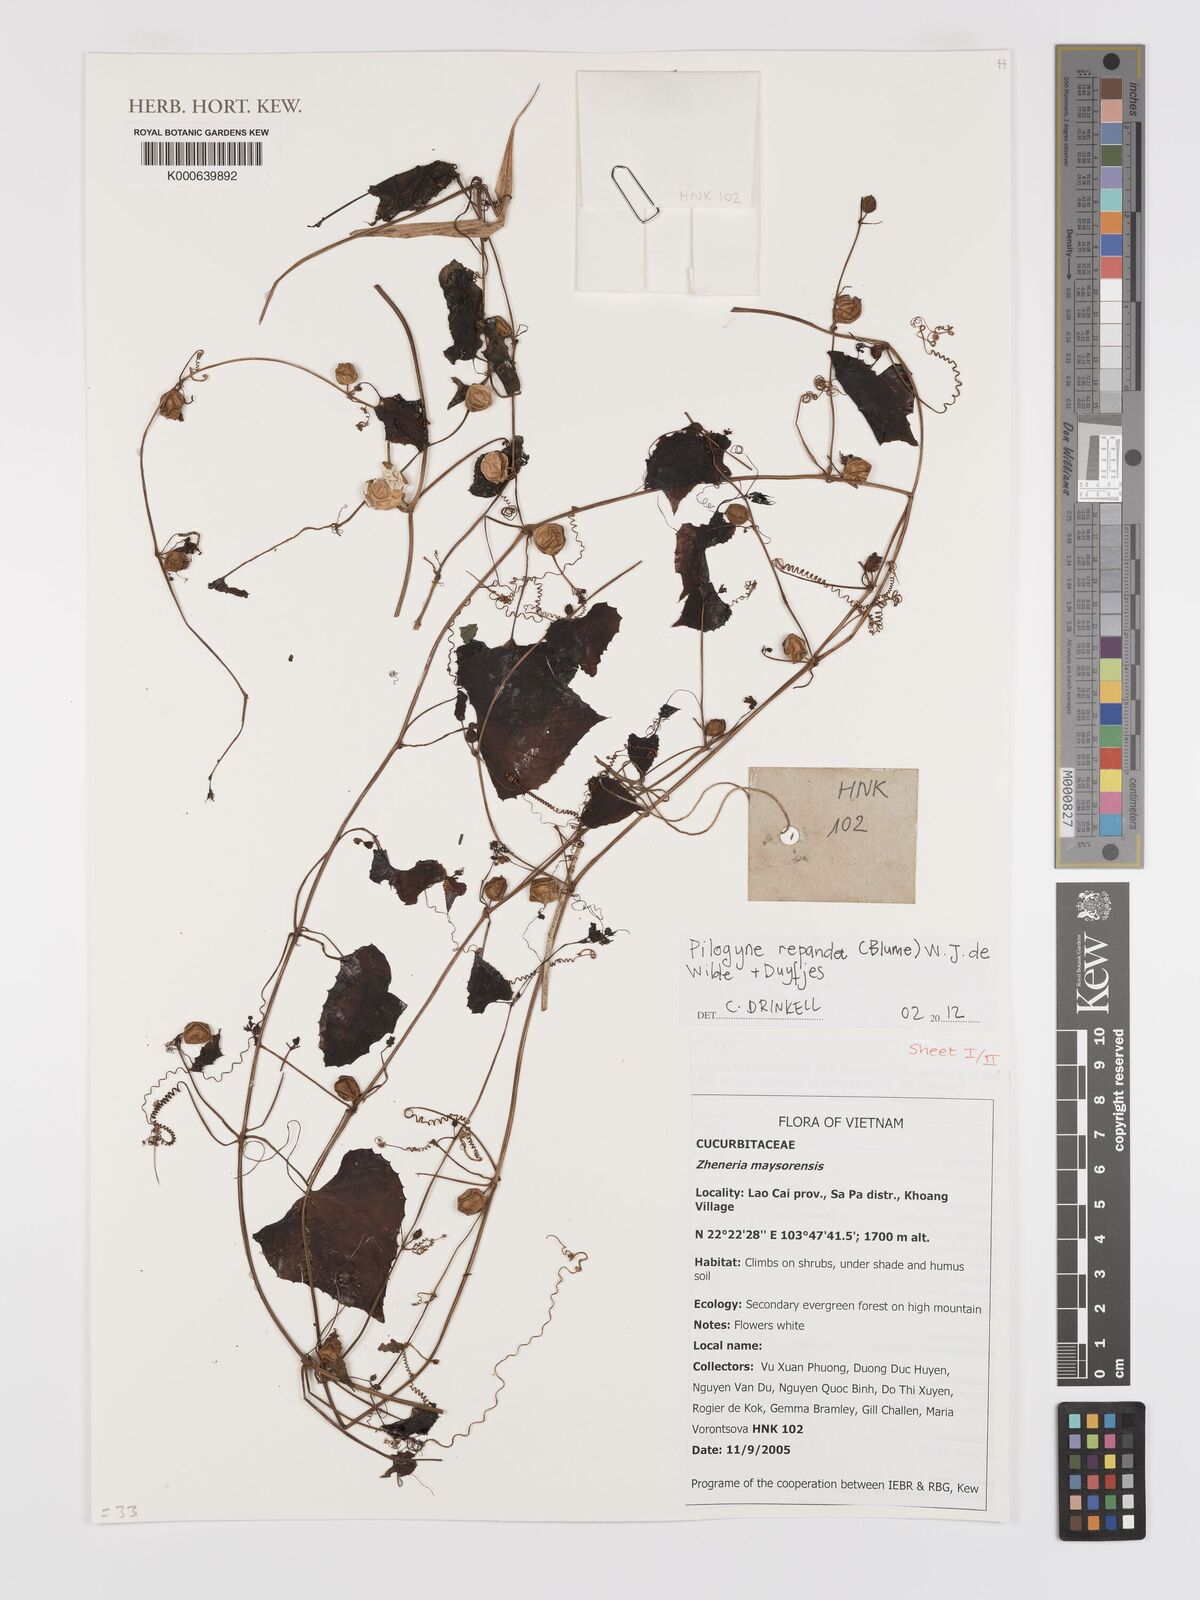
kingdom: Plantae
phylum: Tracheophyta
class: Magnoliopsida
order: Cucurbitales
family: Cucurbitaceae
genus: Zehneria
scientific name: Zehneria repanda
